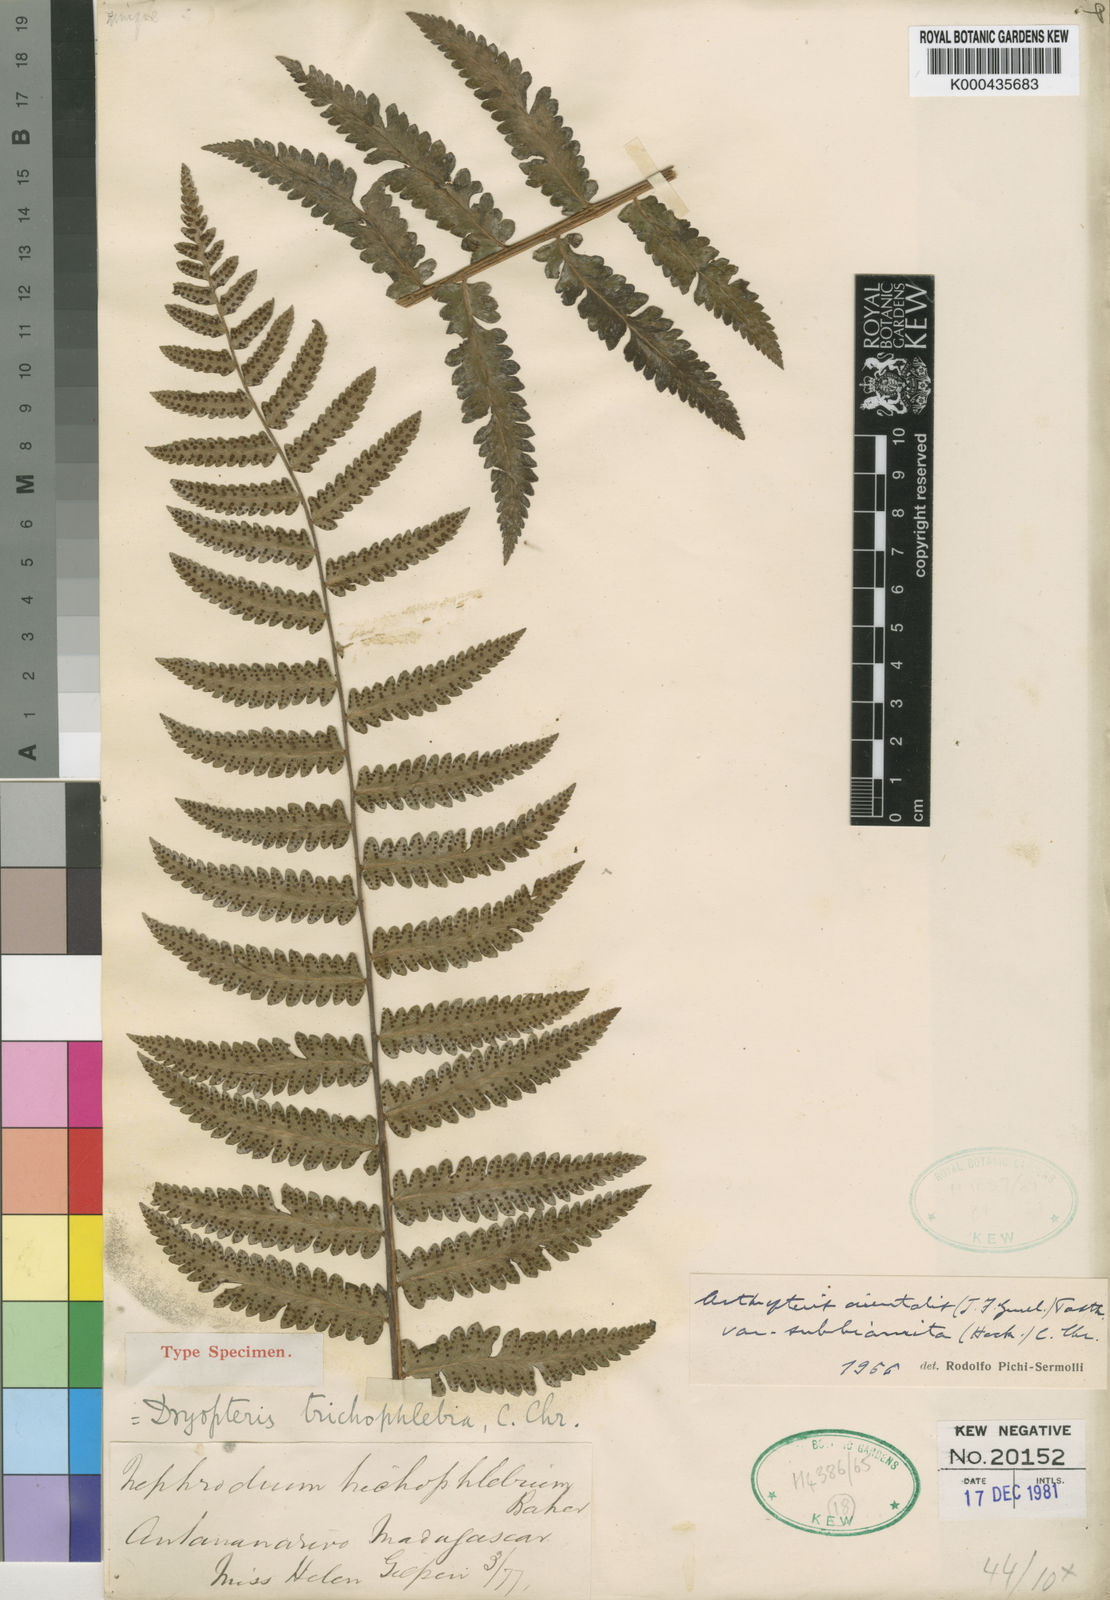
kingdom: Plantae
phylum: Tracheophyta
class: Polypodiopsida
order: Polypodiales
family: Tectariaceae
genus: Arthropteris
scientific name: Arthropteris orientalis
